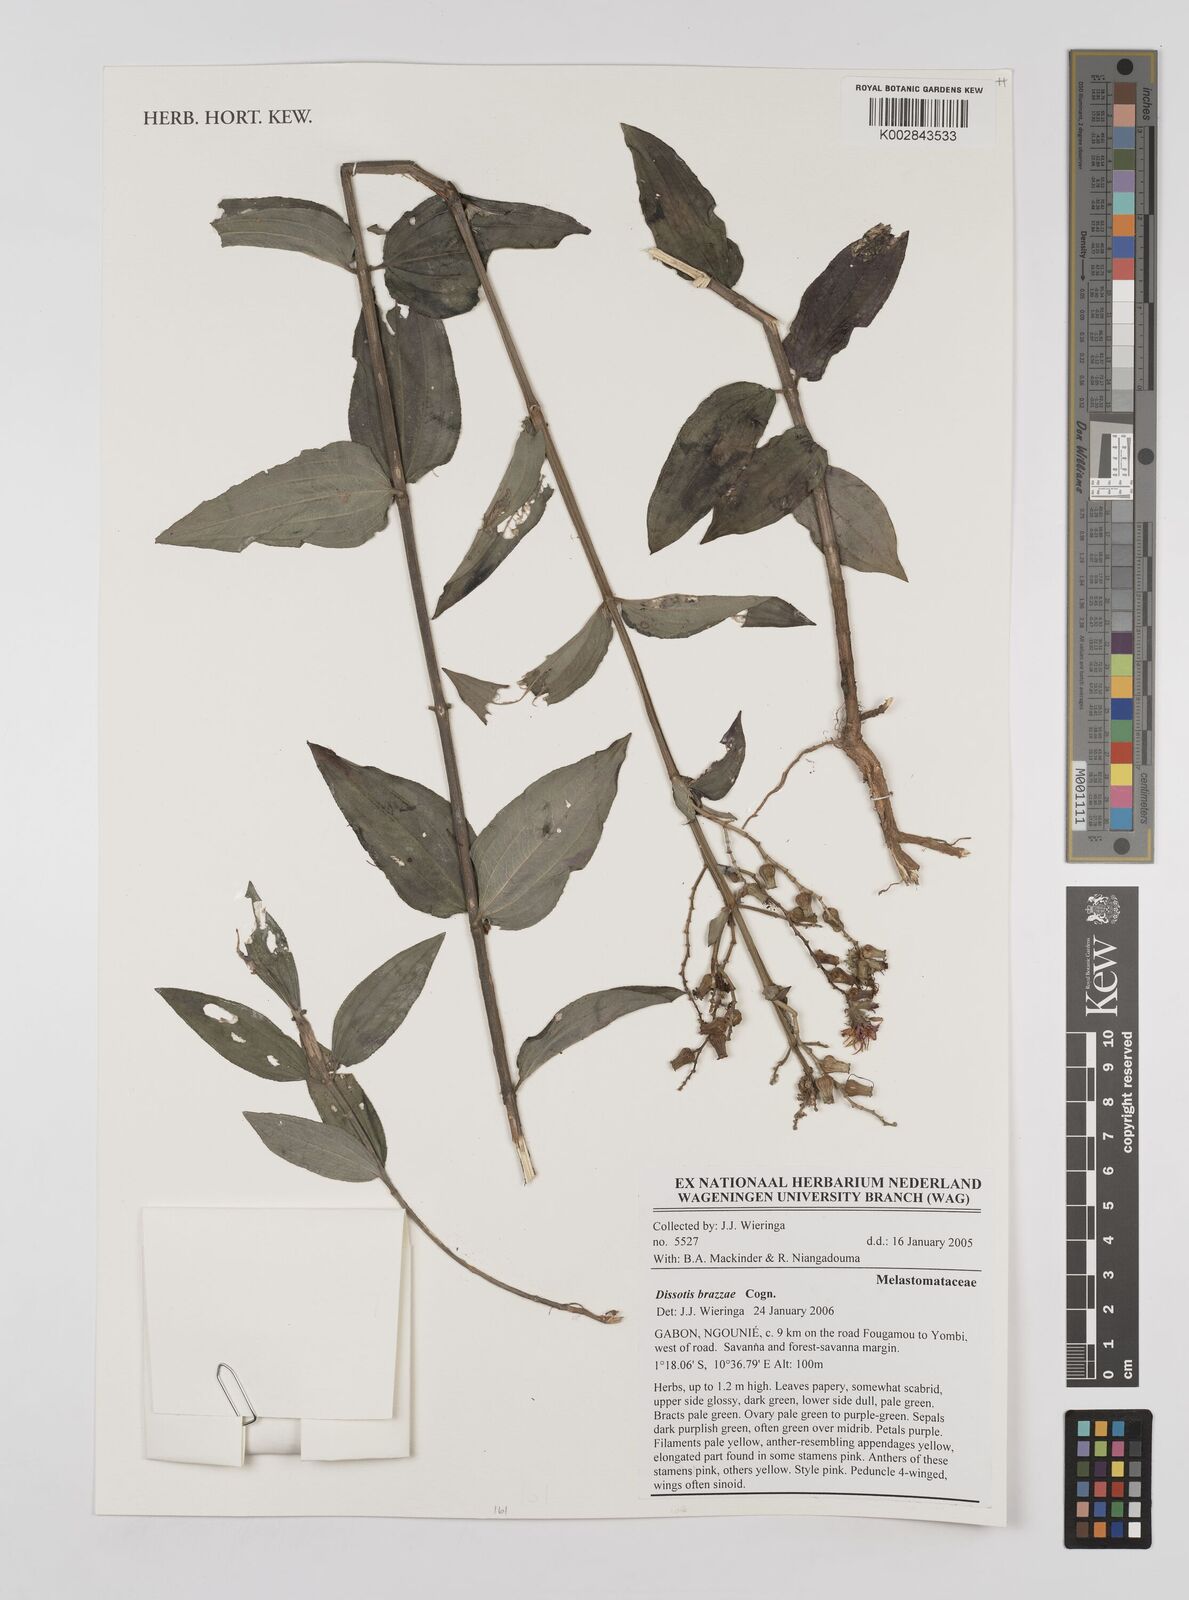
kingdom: Plantae
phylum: Tracheophyta
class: Magnoliopsida
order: Myrtales
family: Melastomataceae
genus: Dupineta
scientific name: Dupineta brazzae
